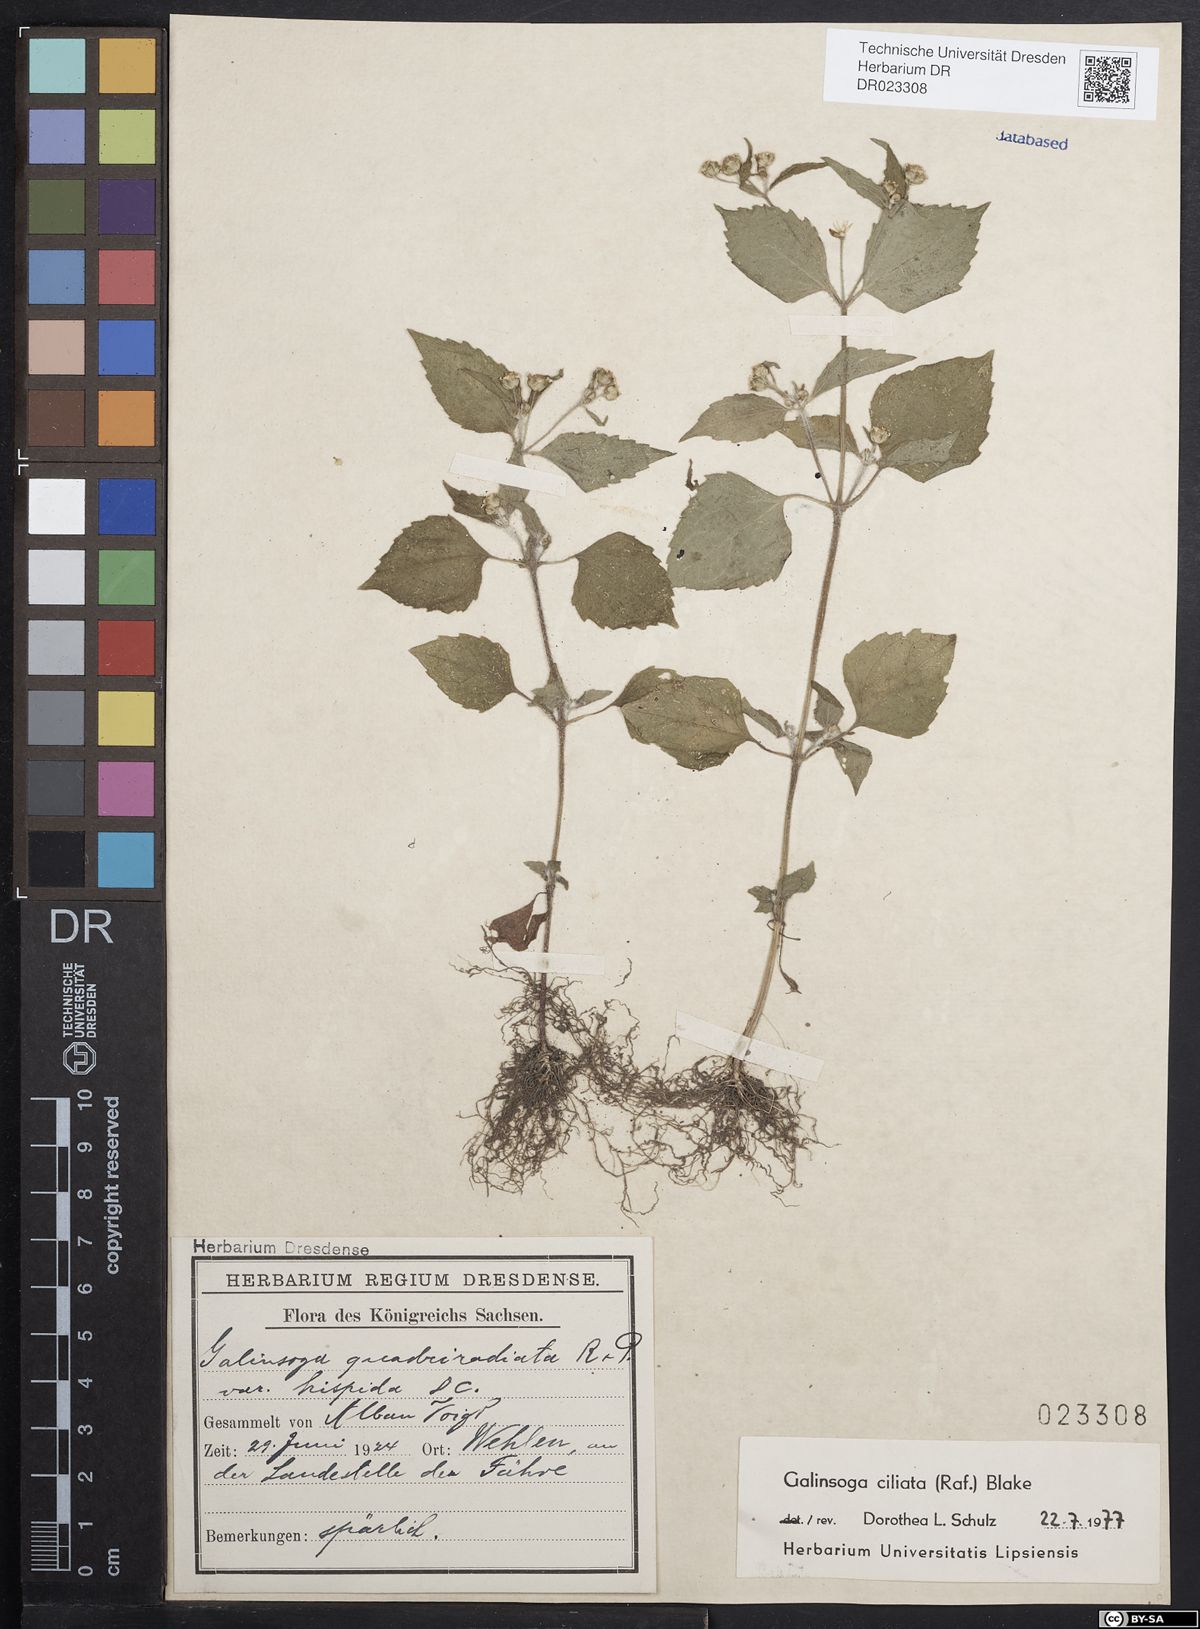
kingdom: Plantae
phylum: Tracheophyta
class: Magnoliopsida
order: Asterales
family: Asteraceae
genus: Galinsoga
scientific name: Galinsoga quadriradiata
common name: Shaggy soldier
